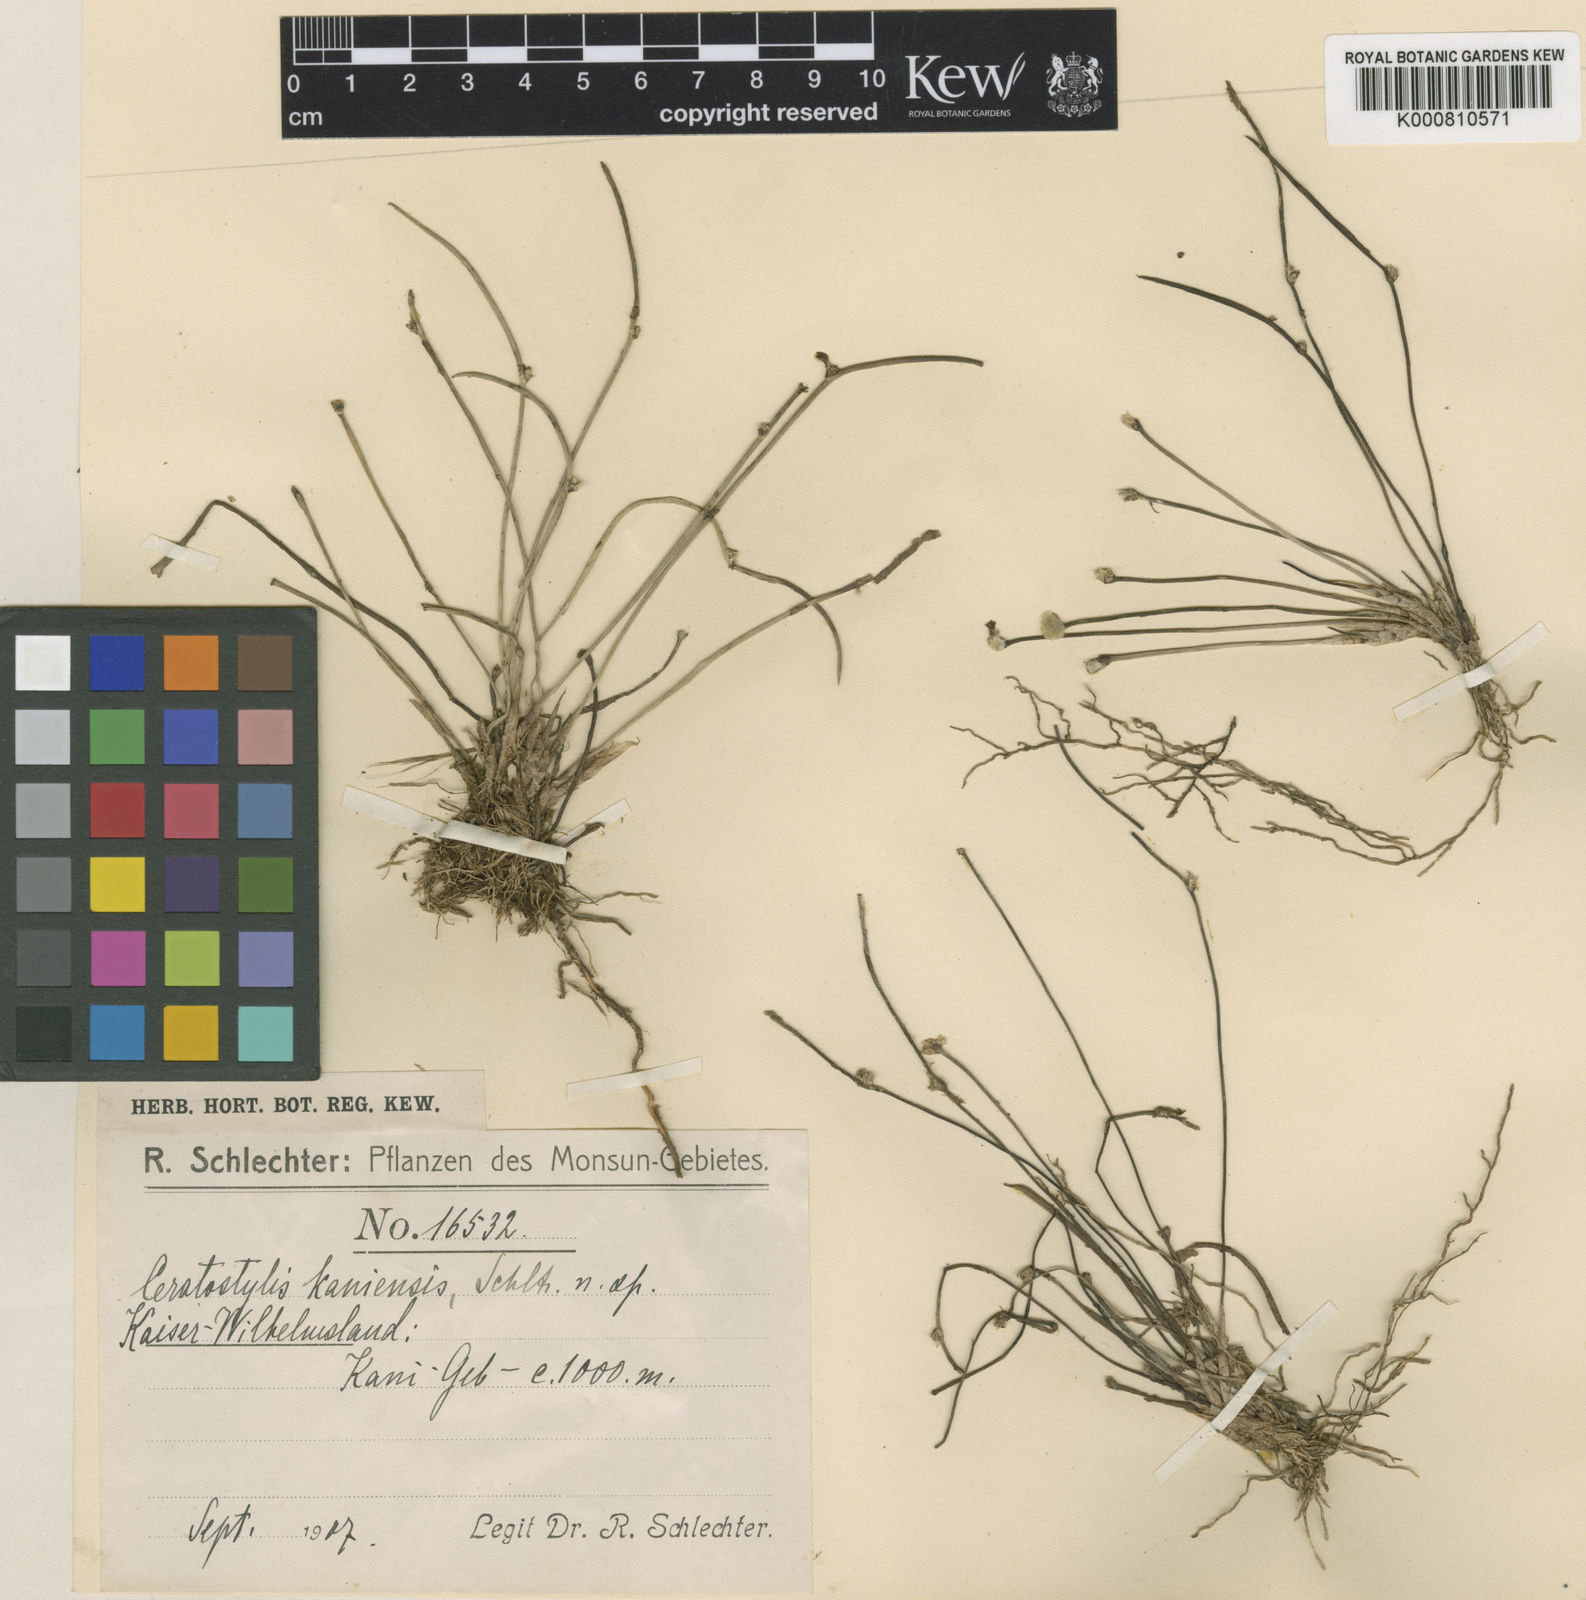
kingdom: Plantae
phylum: Tracheophyta
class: Liliopsida
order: Asparagales
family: Orchidaceae
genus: Ceratostylis
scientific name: Ceratostylis kaniensis
